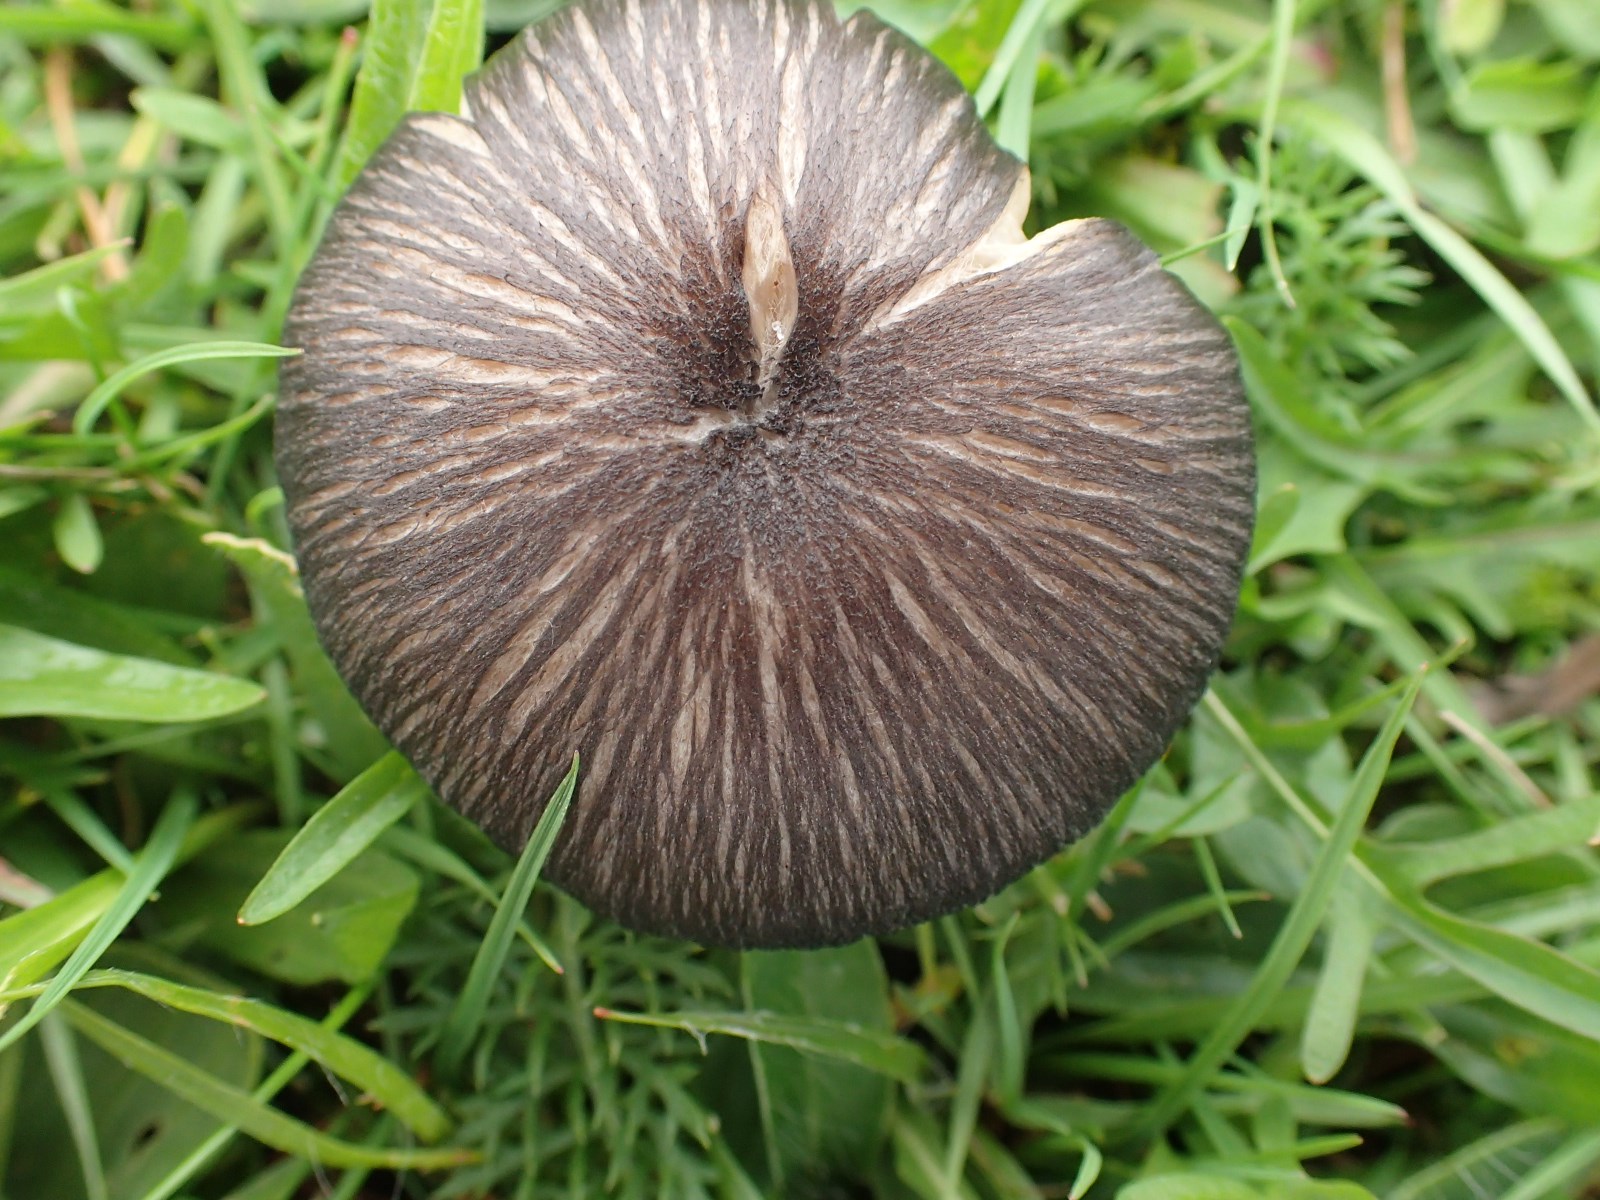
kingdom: Fungi
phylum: Basidiomycota
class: Agaricomycetes
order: Agaricales
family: Entolomataceae
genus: Entoloma
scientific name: Entoloma
